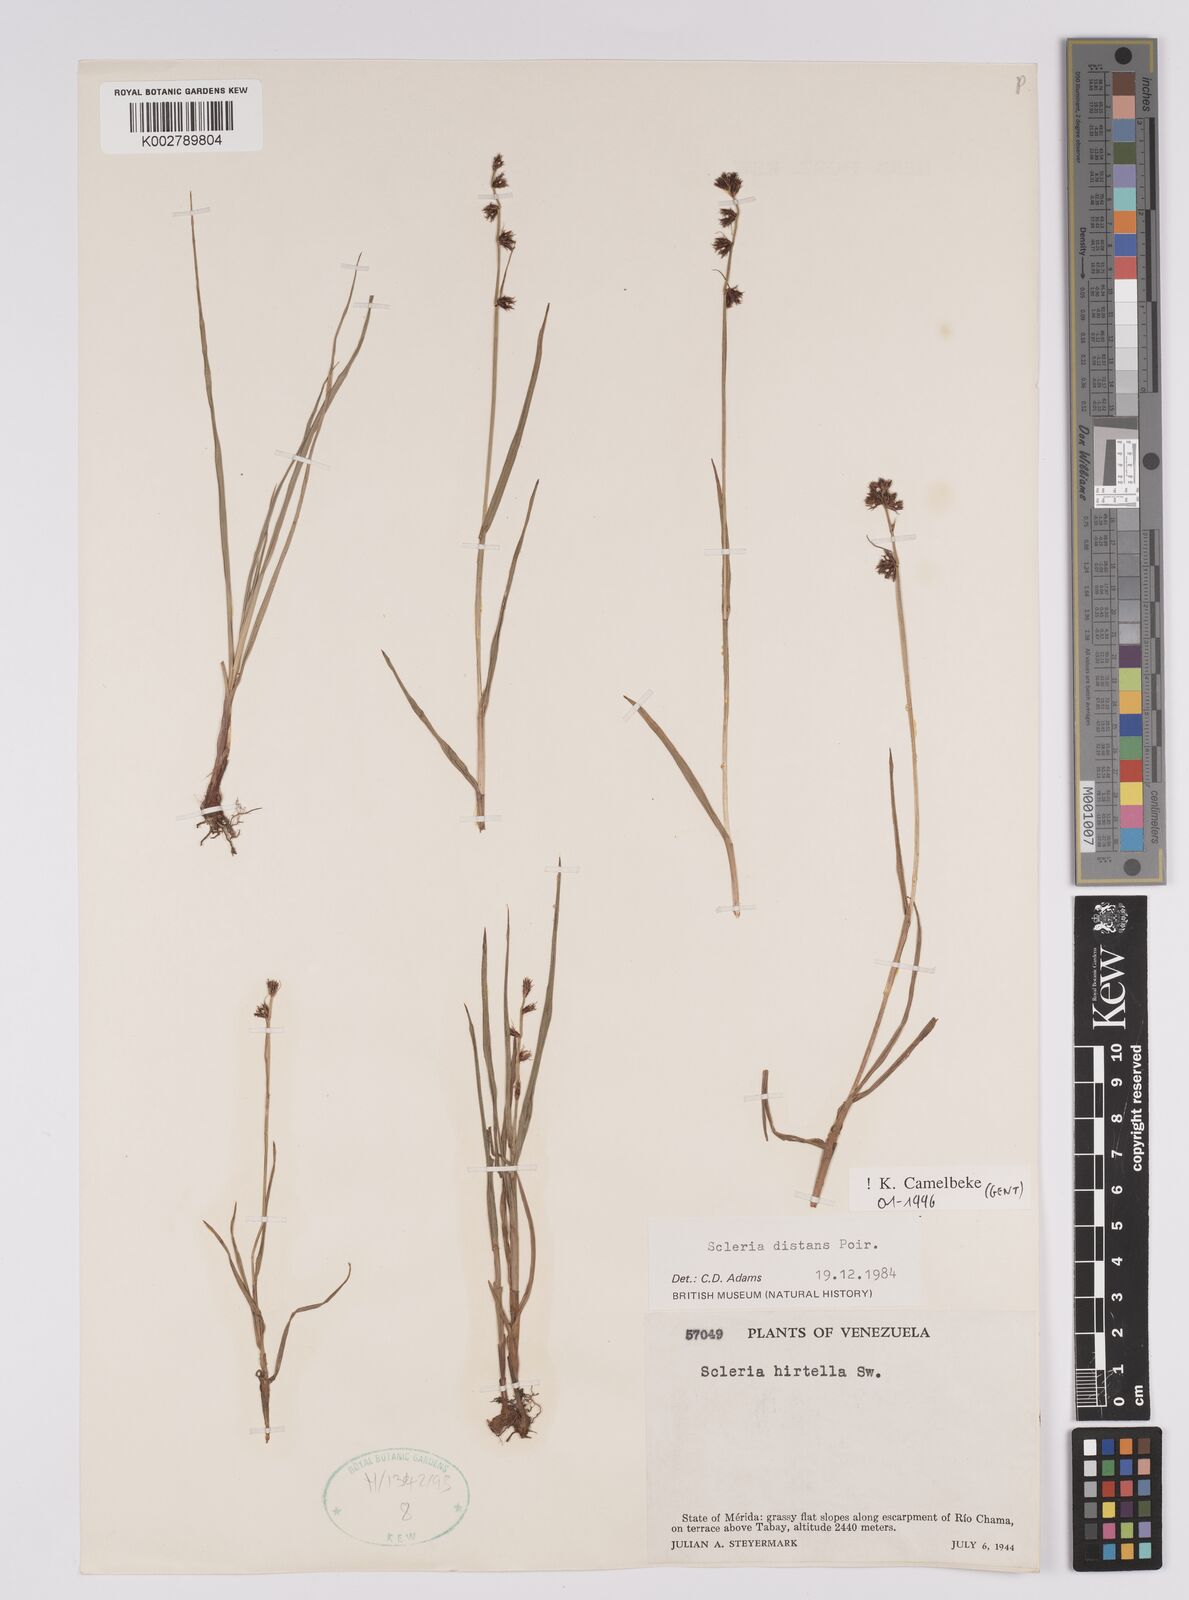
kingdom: Plantae
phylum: Tracheophyta
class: Liliopsida
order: Poales
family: Cyperaceae
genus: Scleria
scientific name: Scleria verticillata
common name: Low nutrush
